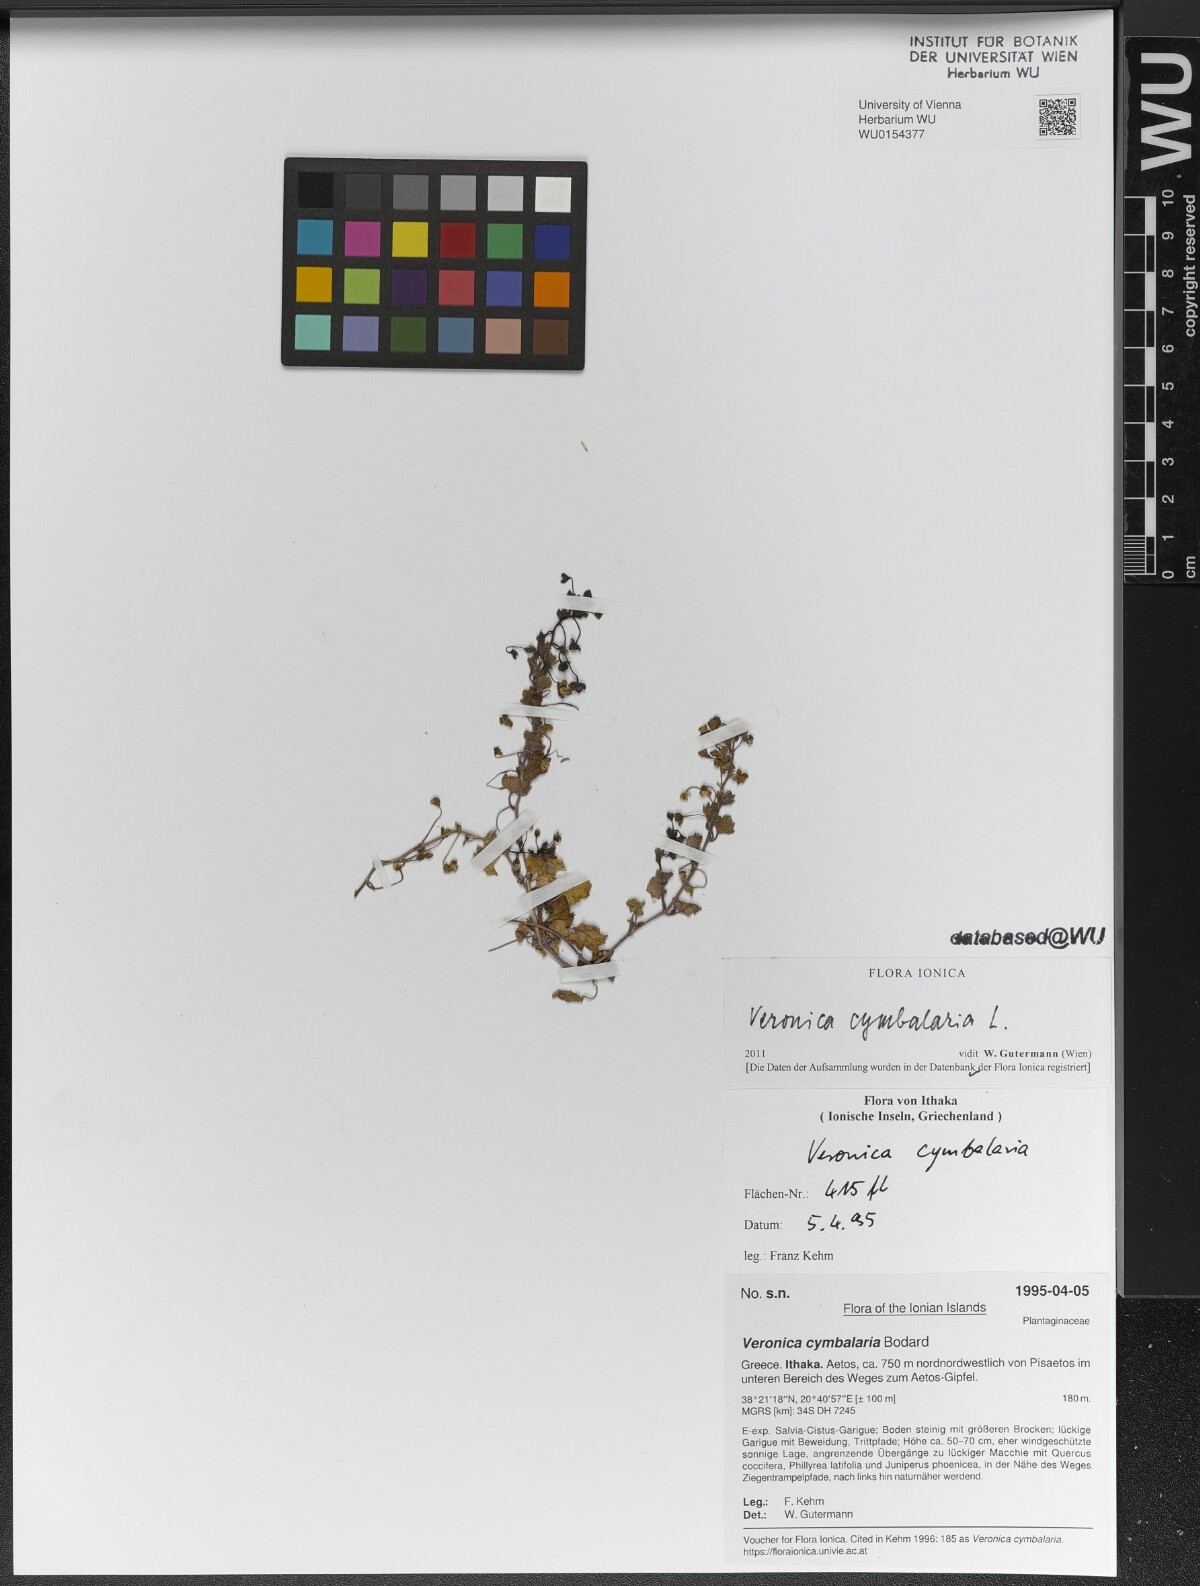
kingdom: Plantae
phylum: Tracheophyta
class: Magnoliopsida
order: Lamiales
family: Plantaginaceae
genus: Veronica
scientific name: Veronica cymbalaria
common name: Pale speedwell
